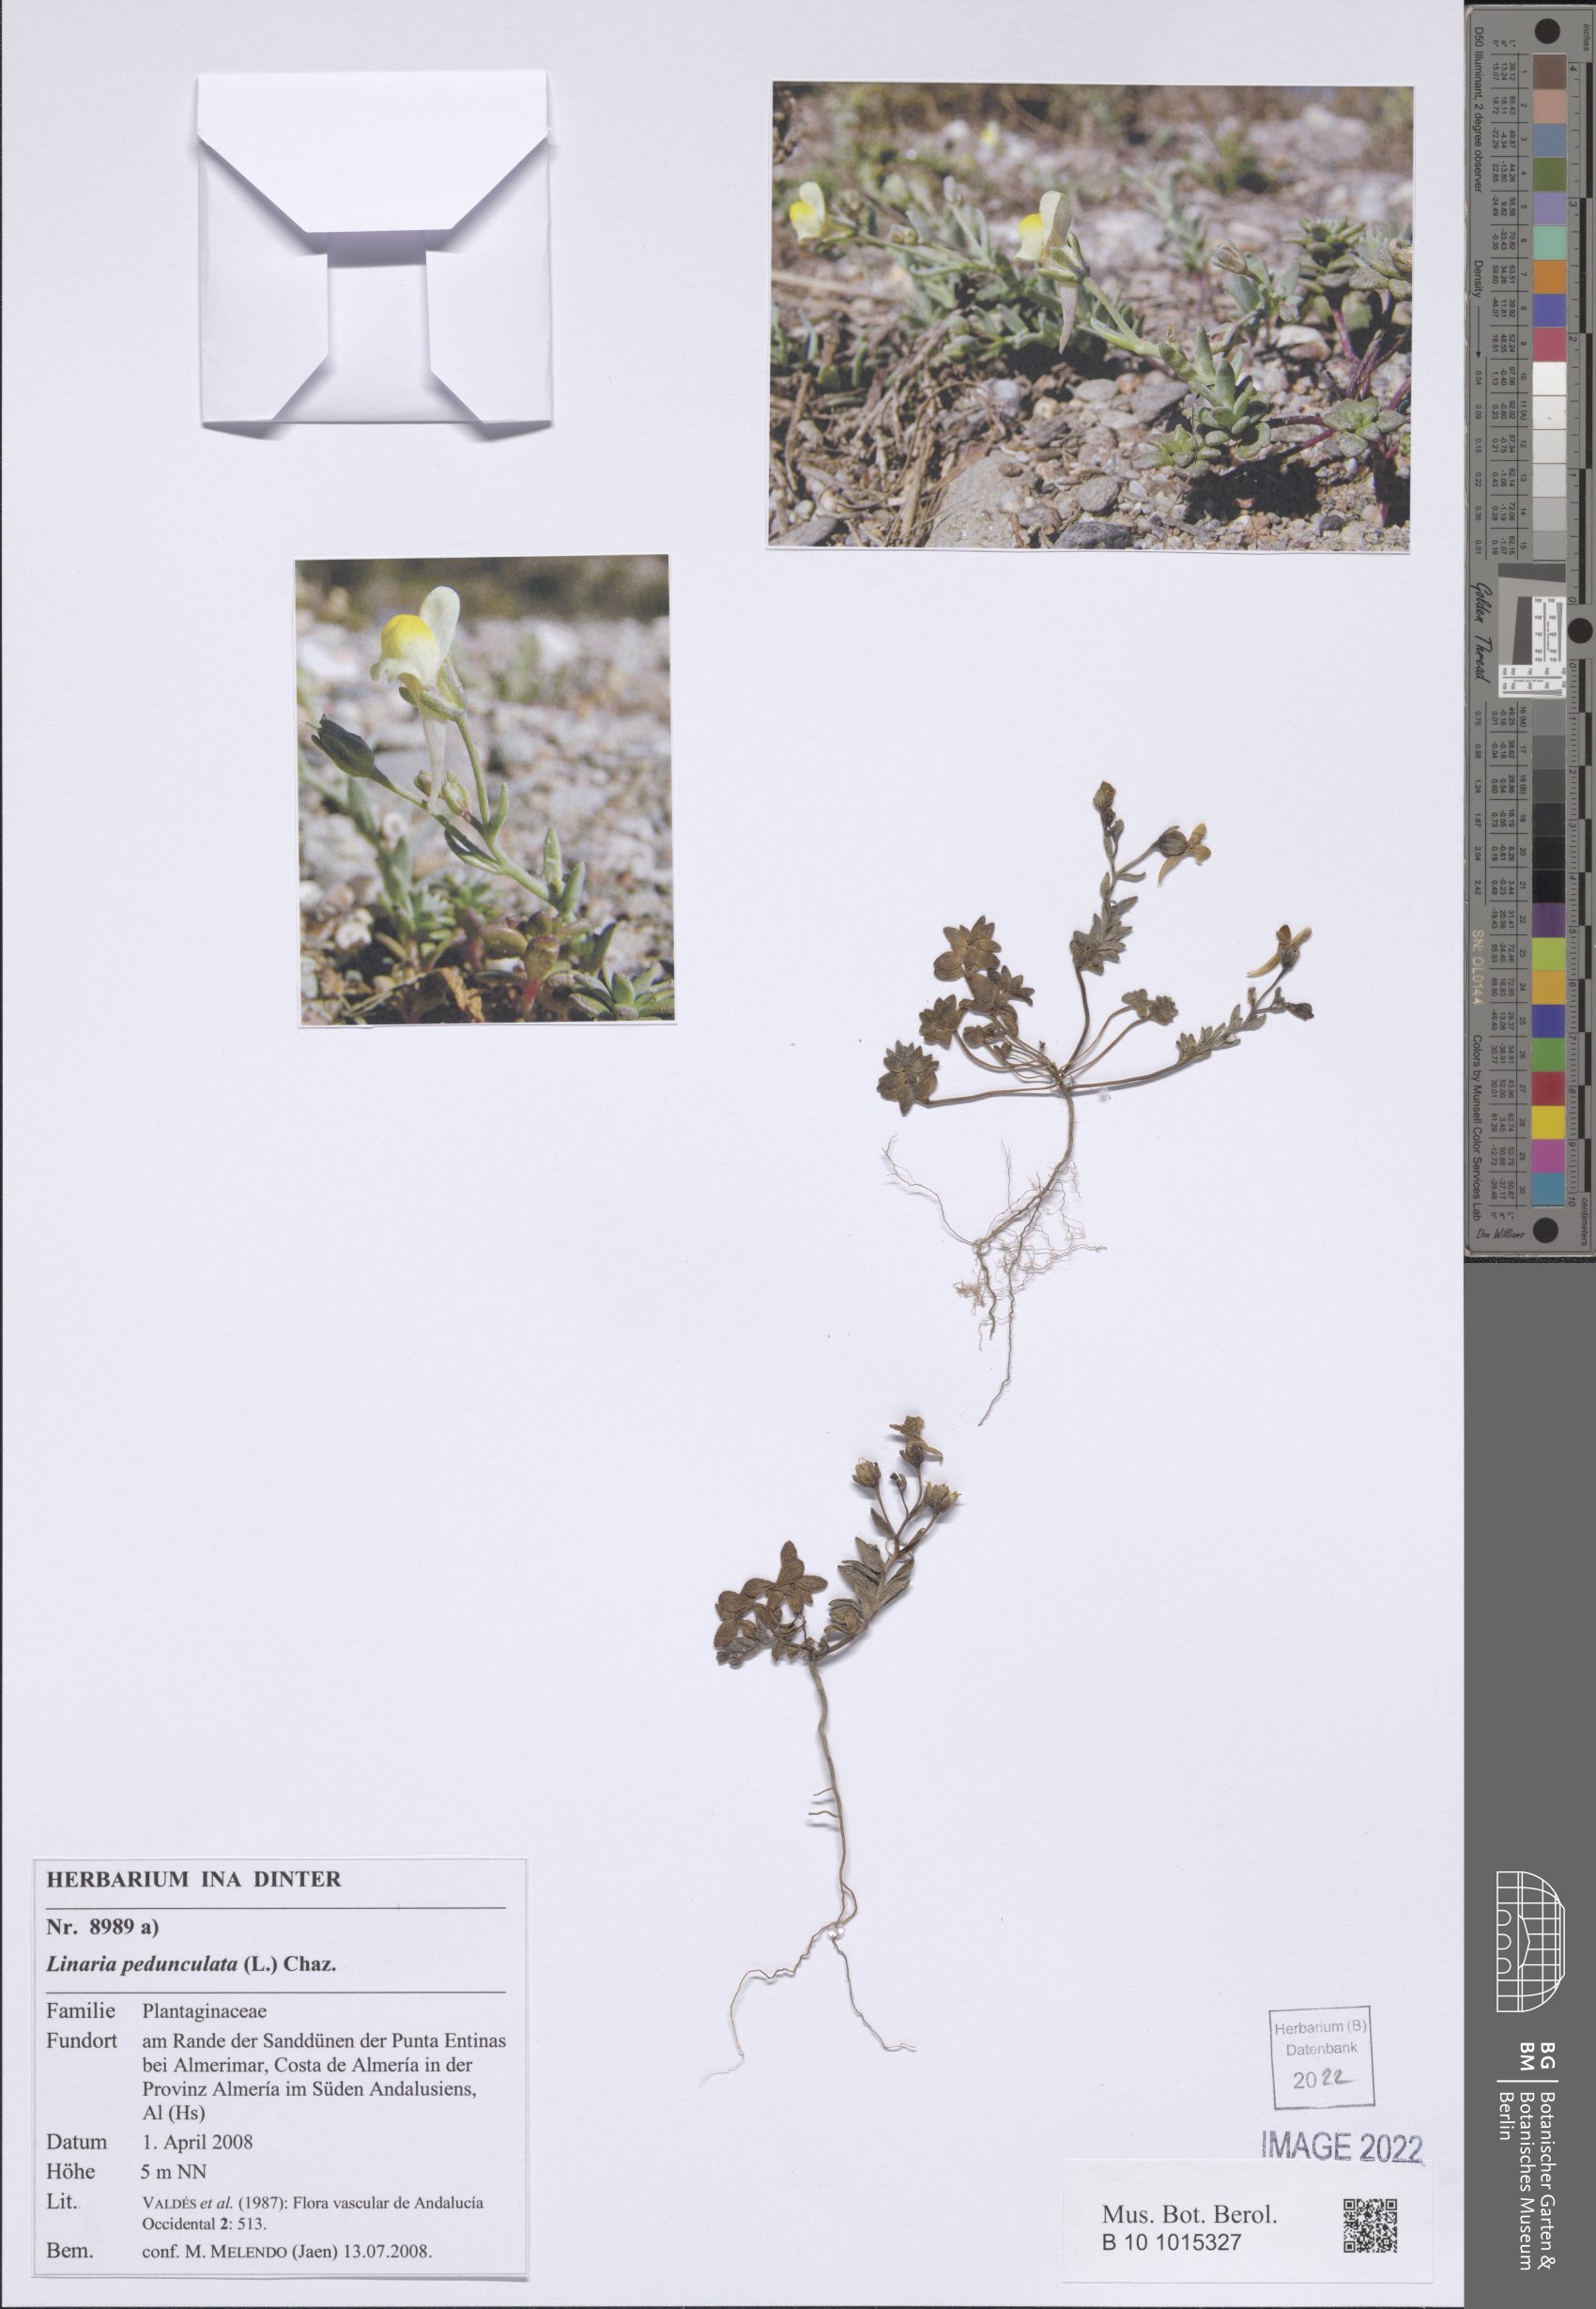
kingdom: Plantae
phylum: Tracheophyta
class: Magnoliopsida
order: Lamiales
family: Plantaginaceae
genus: Linaria
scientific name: Linaria pedunculata
